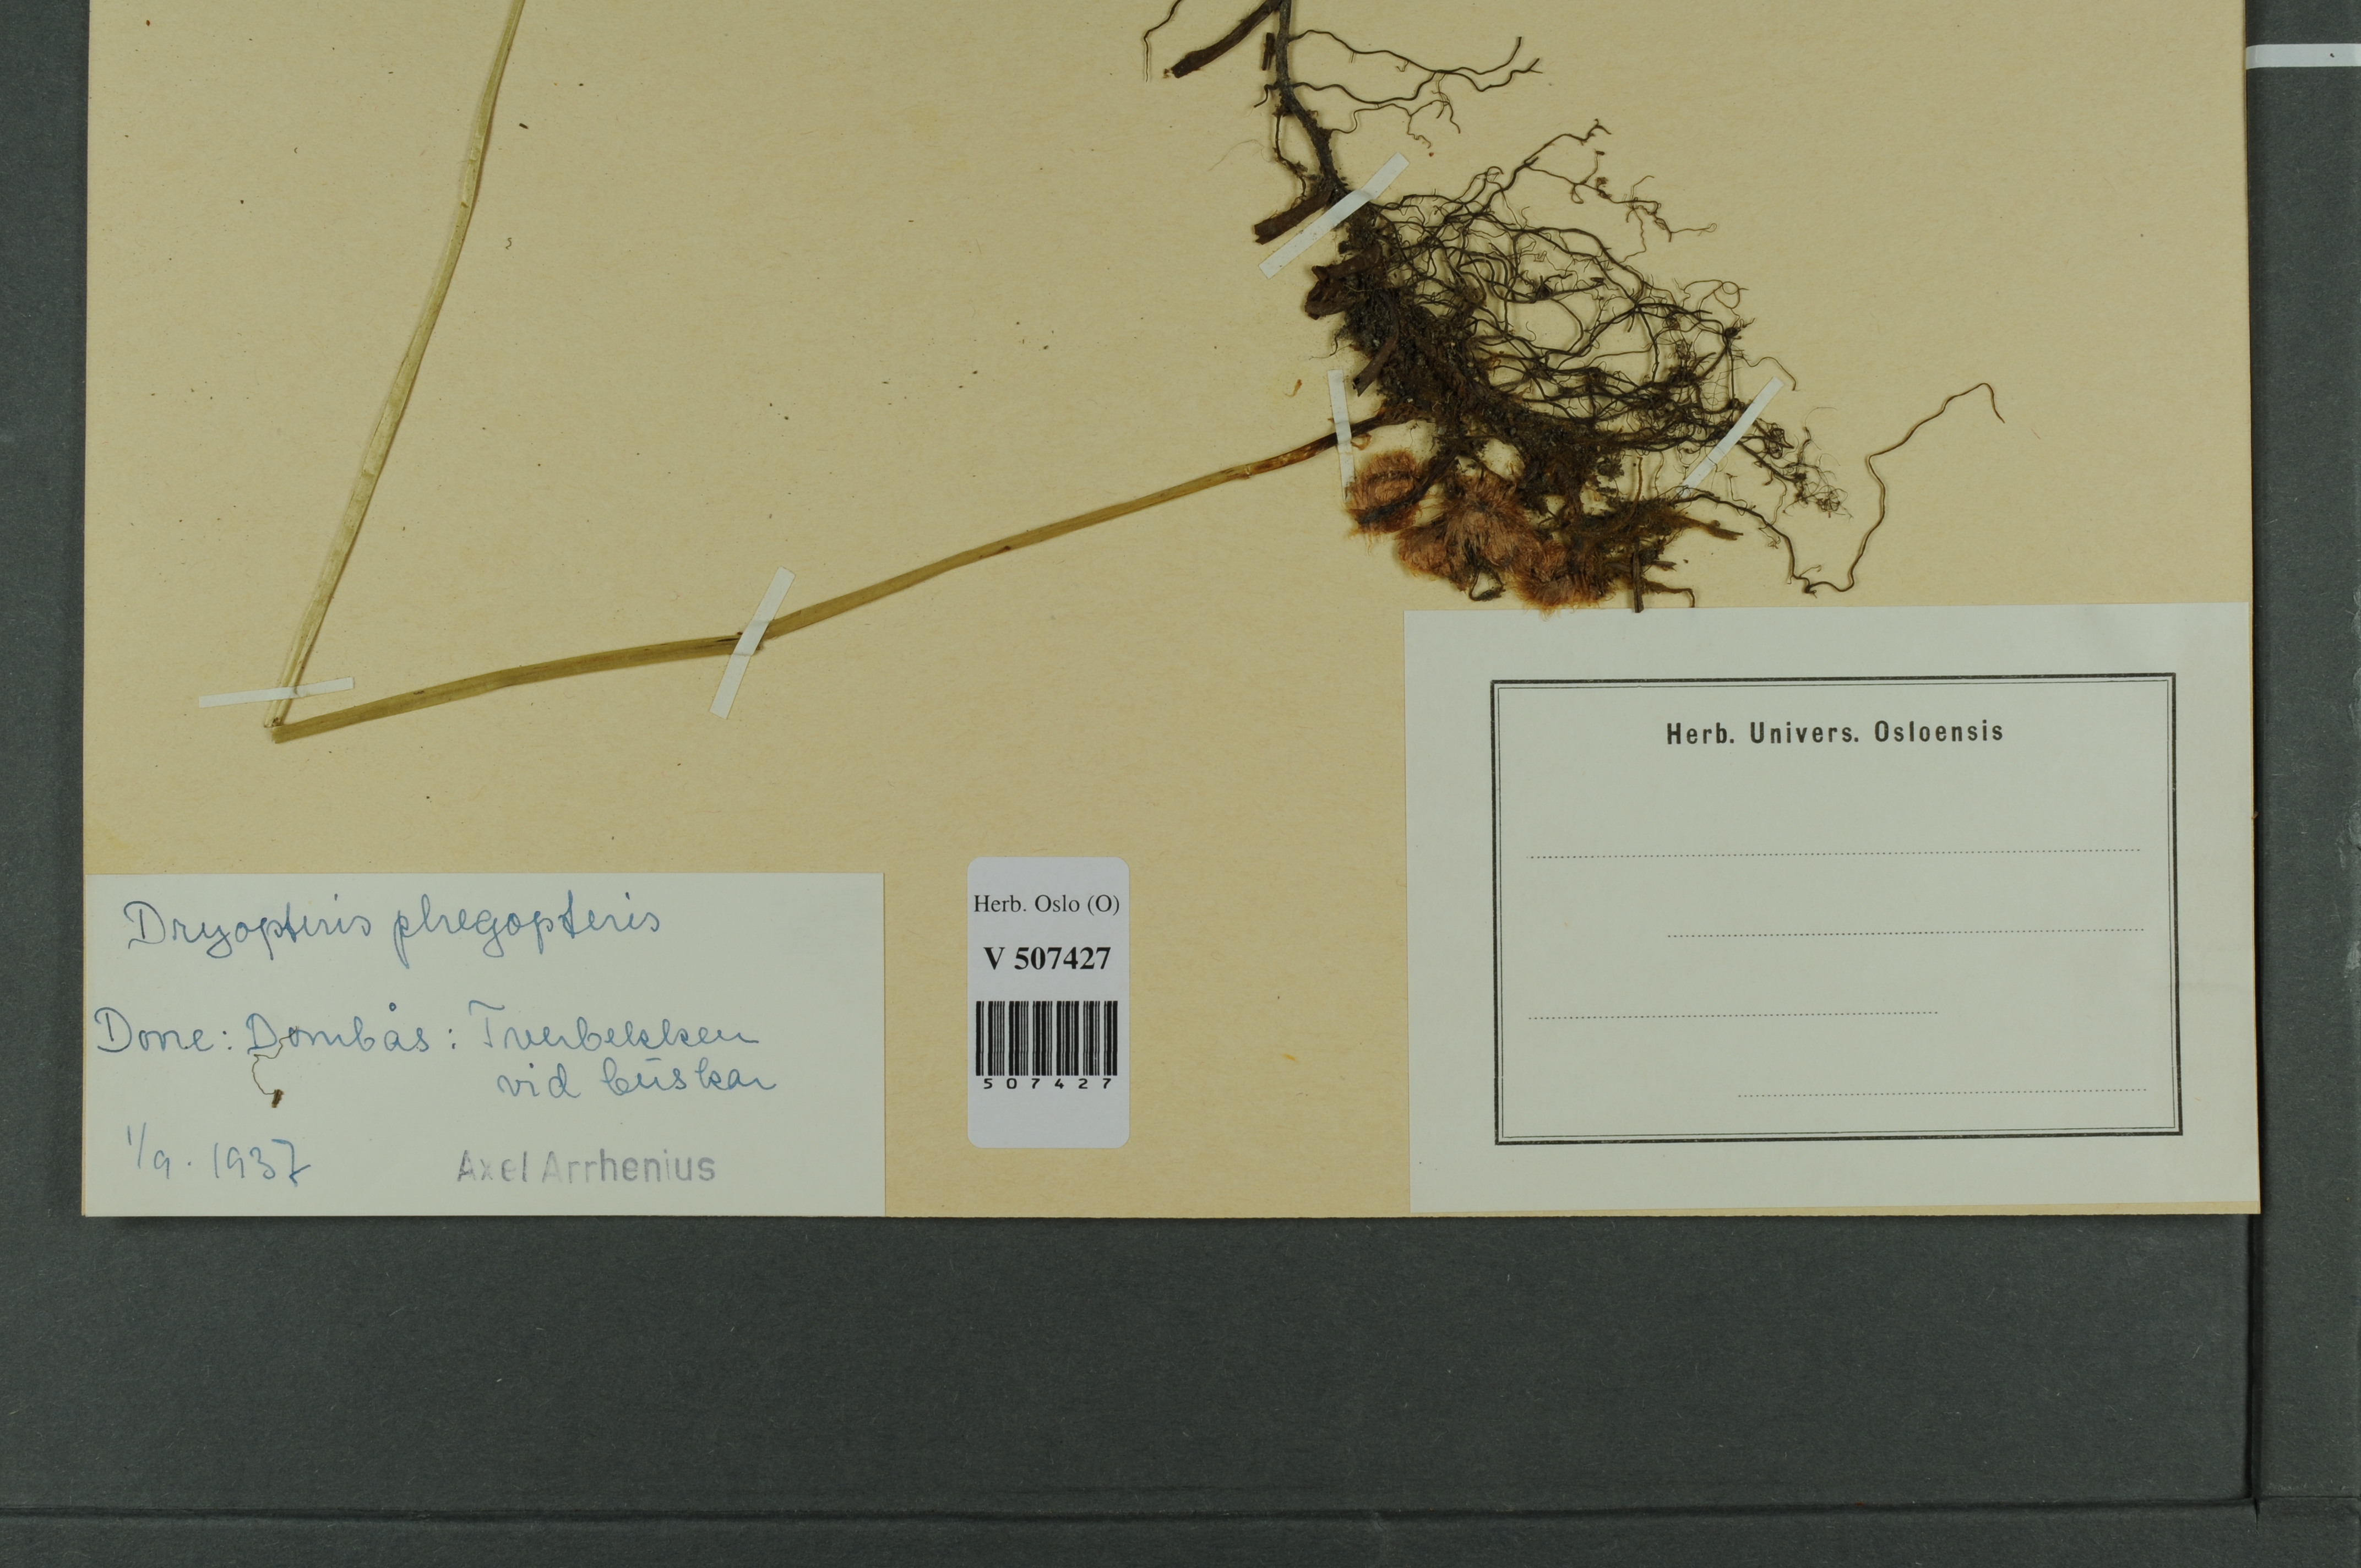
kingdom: Plantae
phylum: Tracheophyta
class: Polypodiopsida
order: Polypodiales
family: Thelypteridaceae
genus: Phegopteris
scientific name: Phegopteris connectilis
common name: Beech fern
